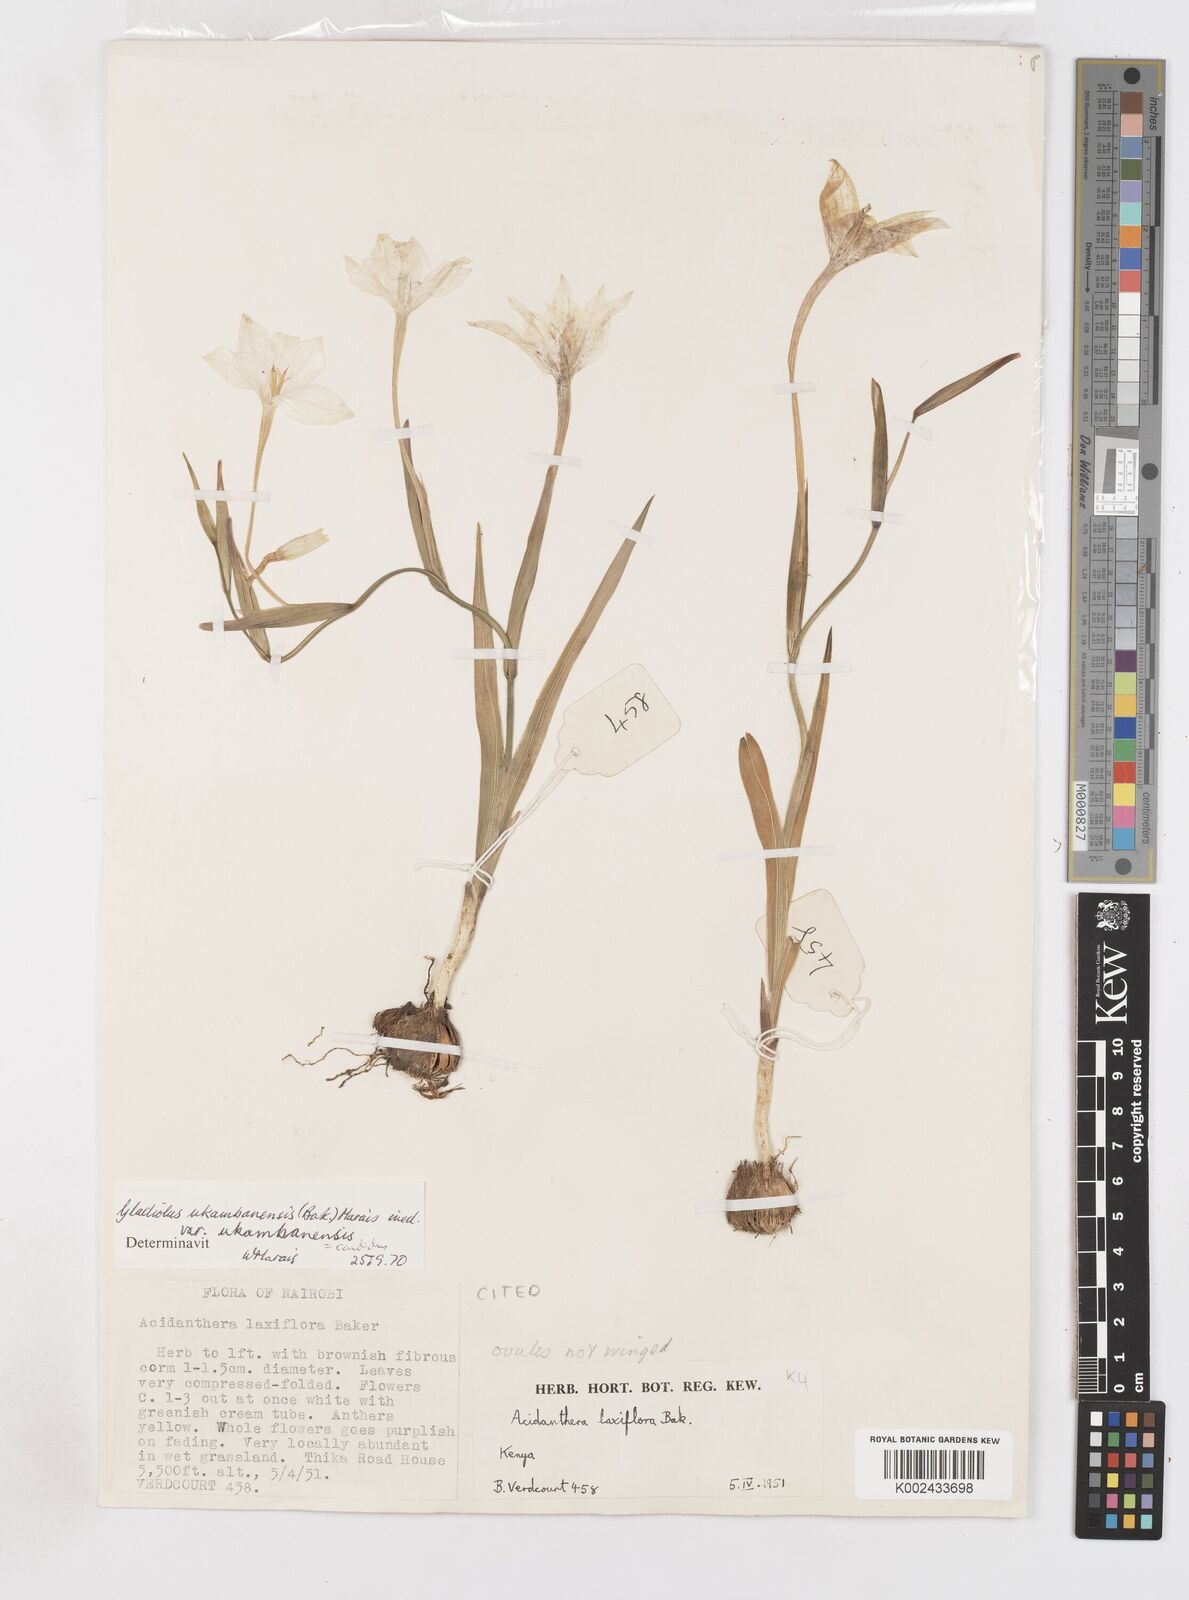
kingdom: Plantae
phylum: Tracheophyta
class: Liliopsida
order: Asparagales
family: Iridaceae
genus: Gladiolus
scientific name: Gladiolus candidus
